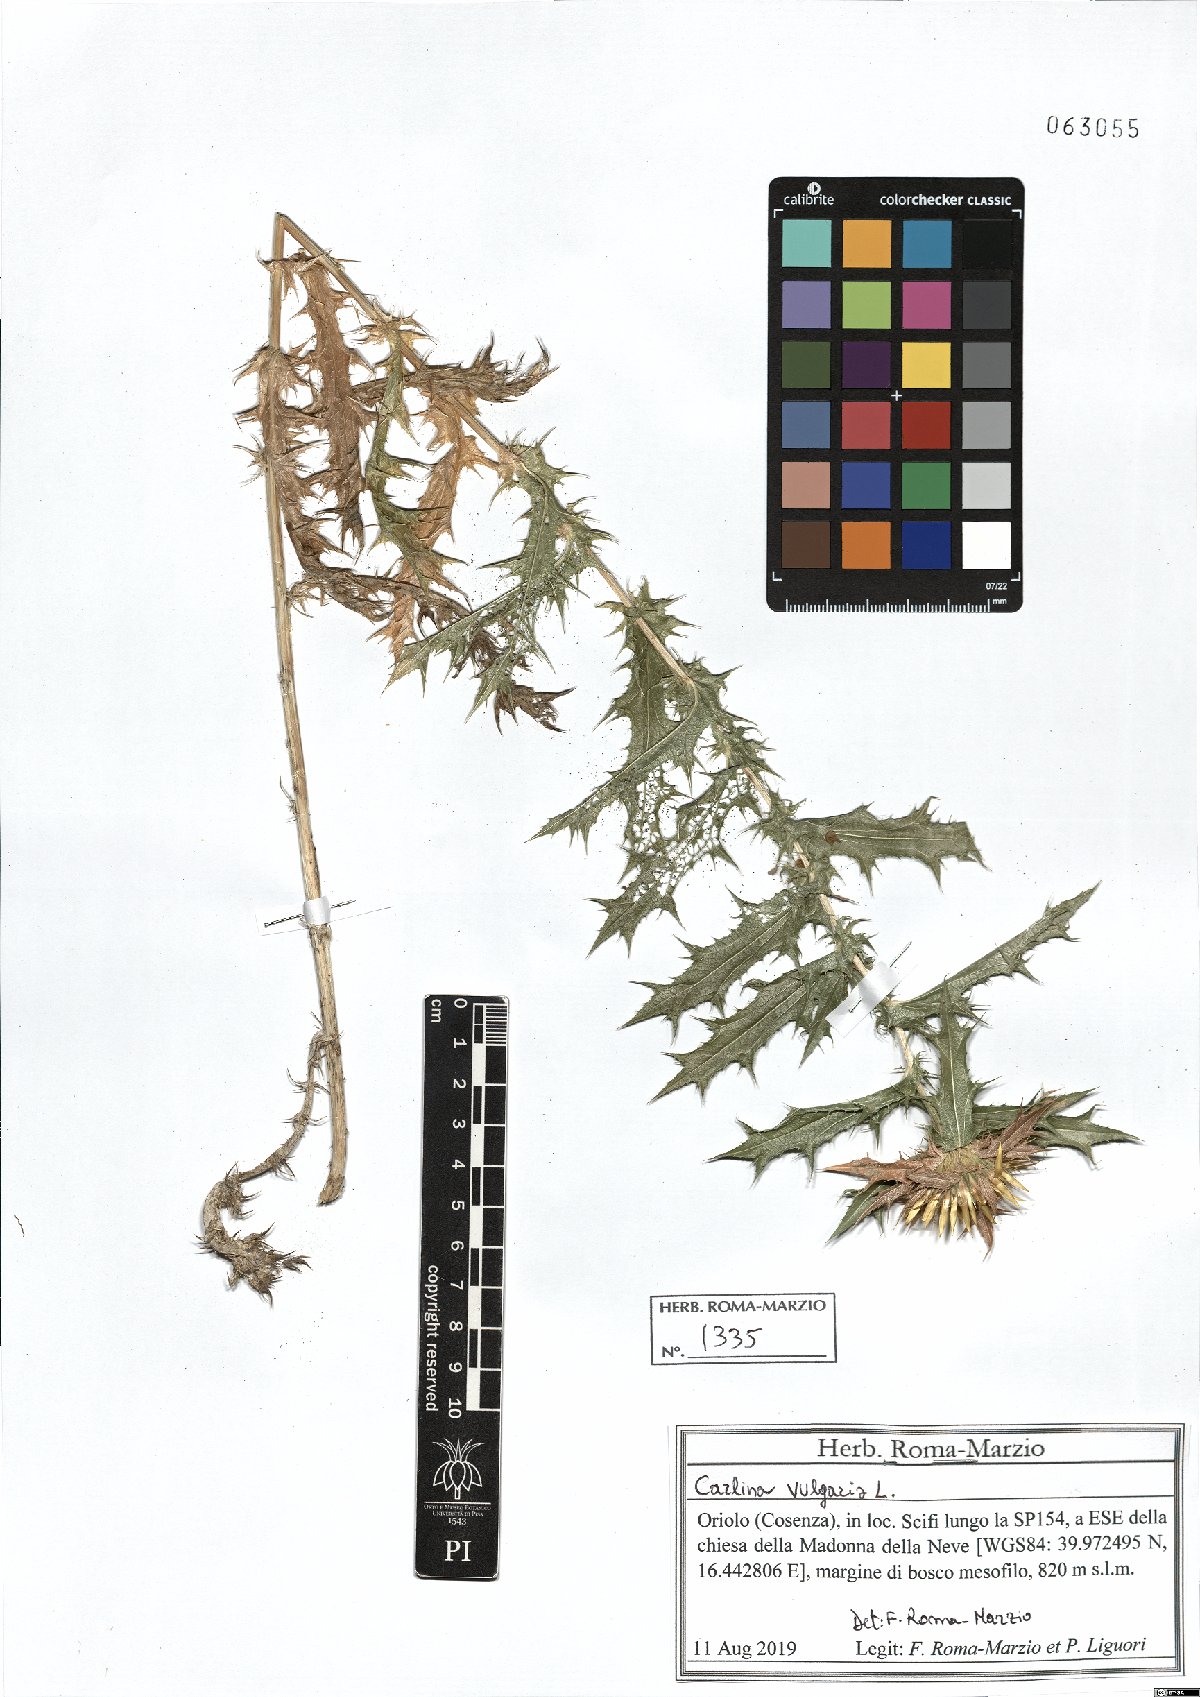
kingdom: Plantae
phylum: Tracheophyta
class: Magnoliopsida
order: Asterales
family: Asteraceae
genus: Carlina
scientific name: Carlina vulgaris
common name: Carline thistle
